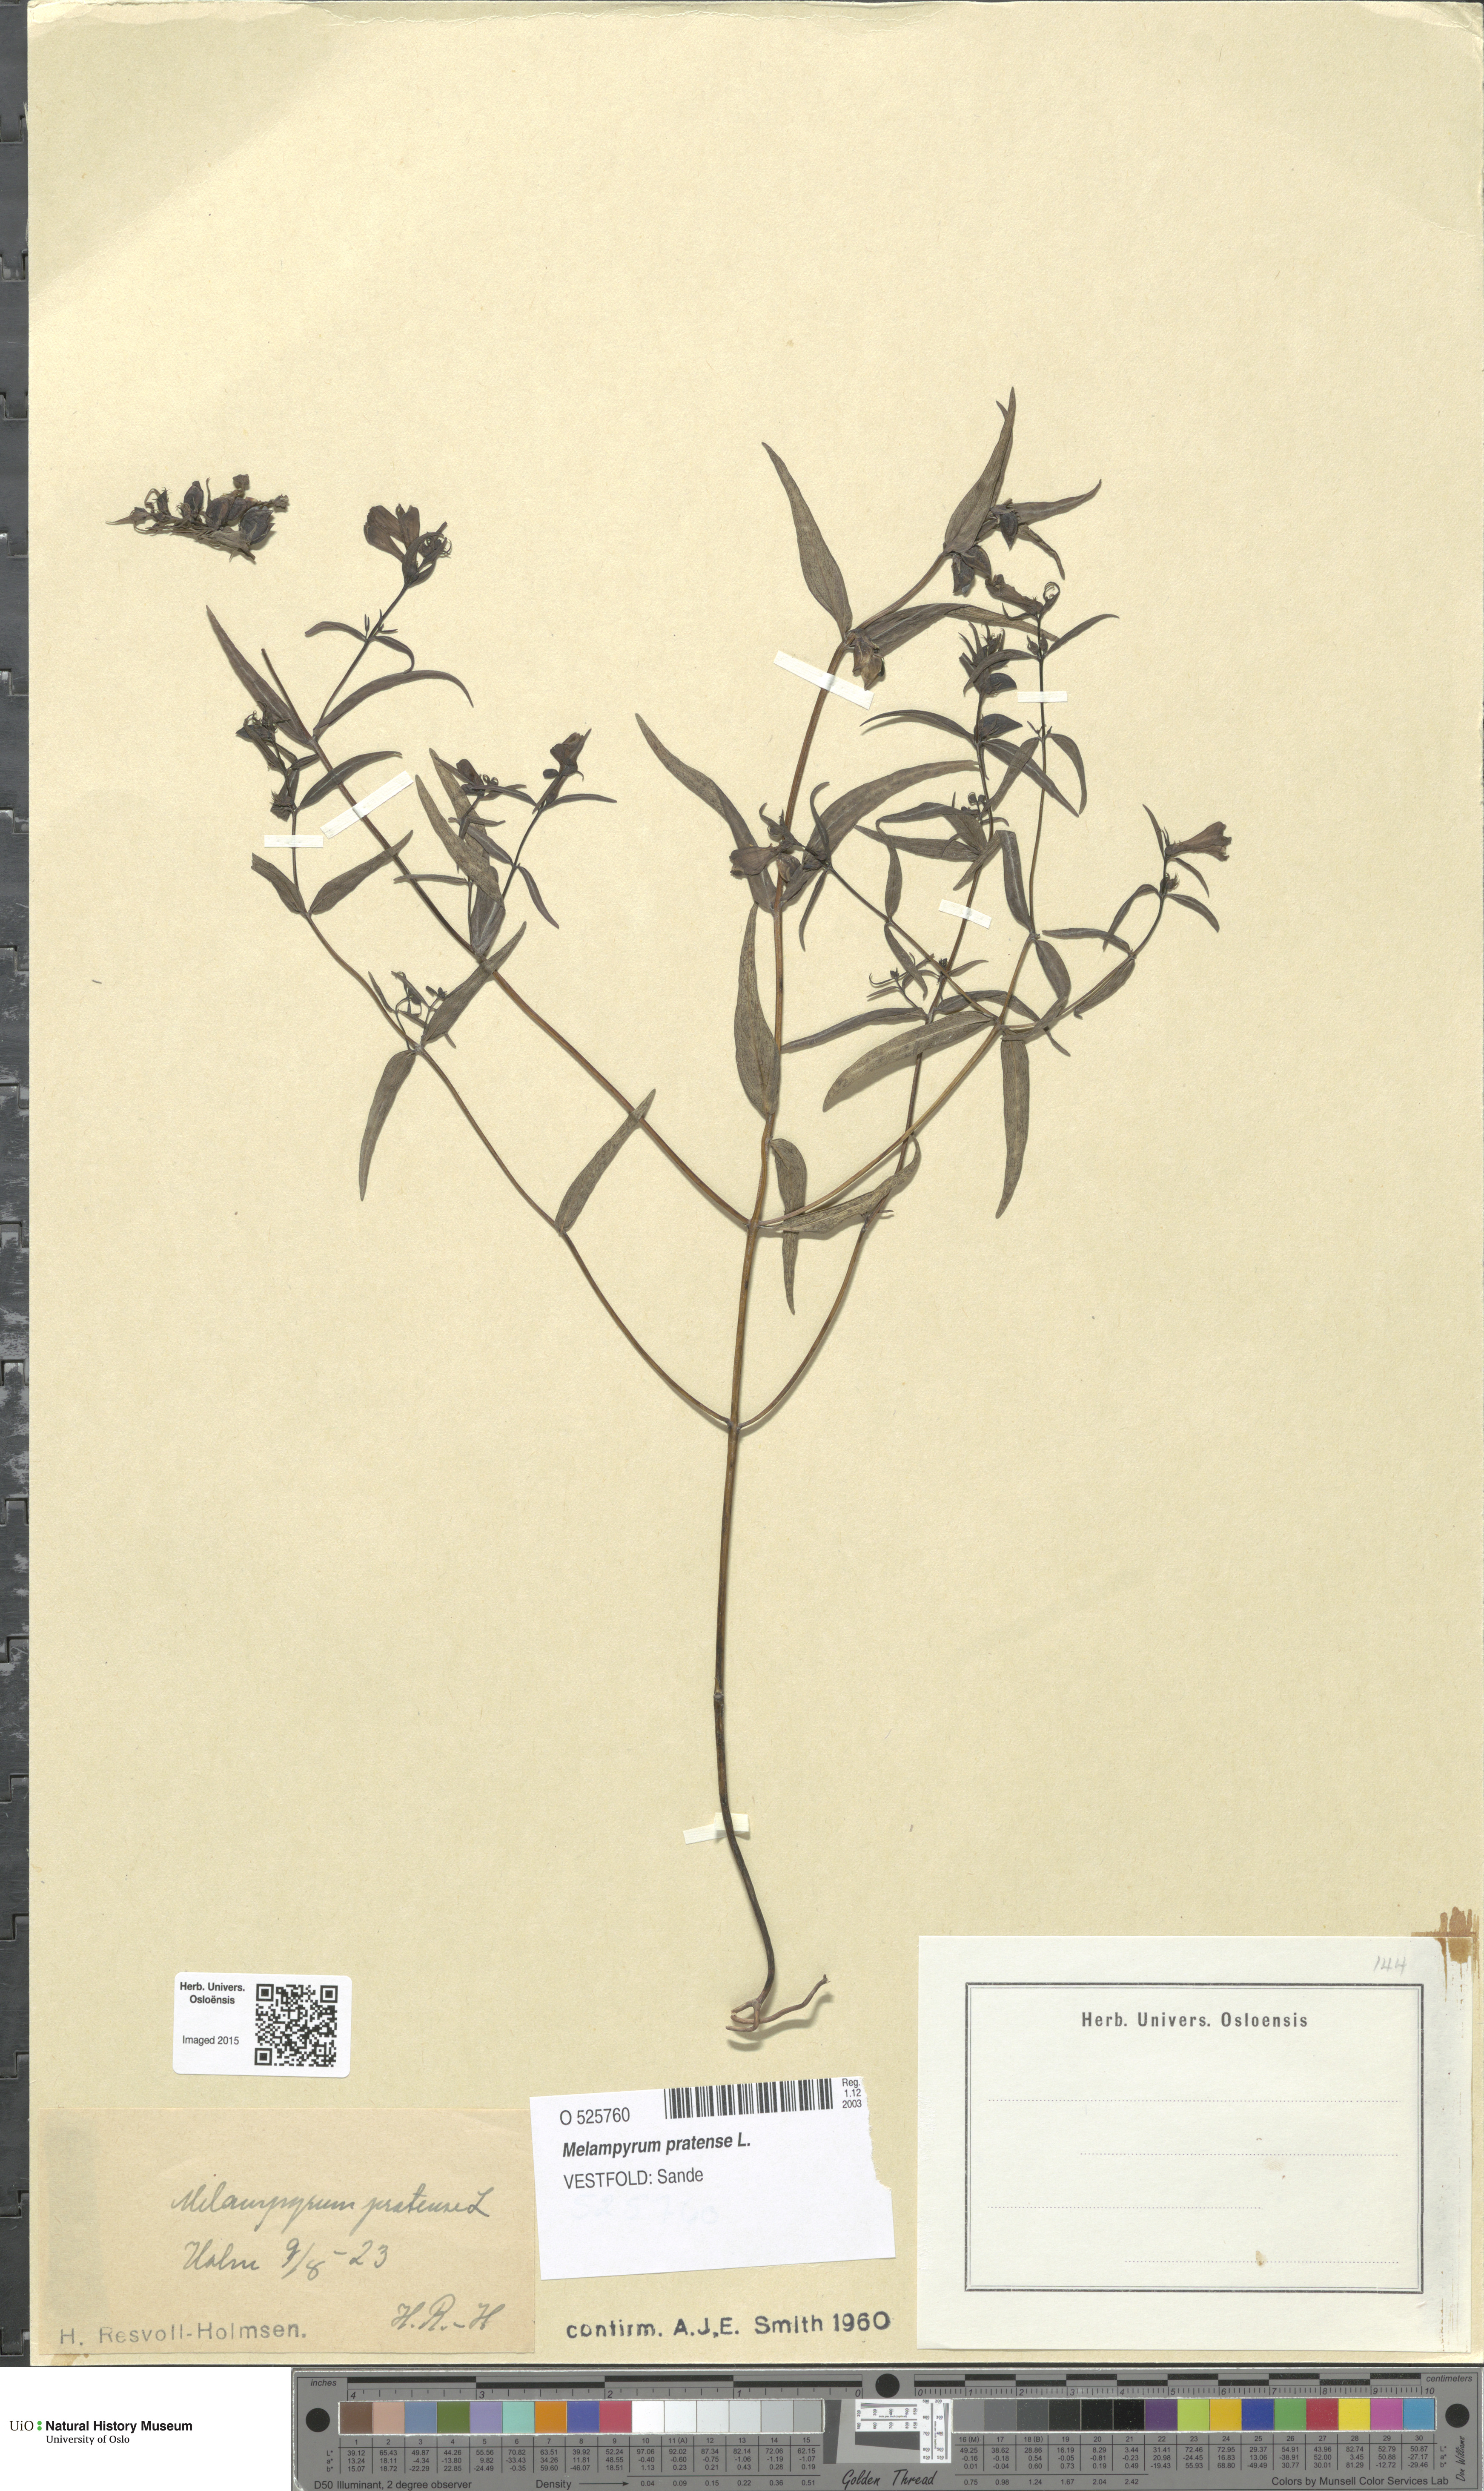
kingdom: Plantae
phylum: Tracheophyta
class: Magnoliopsida
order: Lamiales
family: Orobanchaceae
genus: Melampyrum
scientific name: Melampyrum pratense
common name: Common cow-wheat
